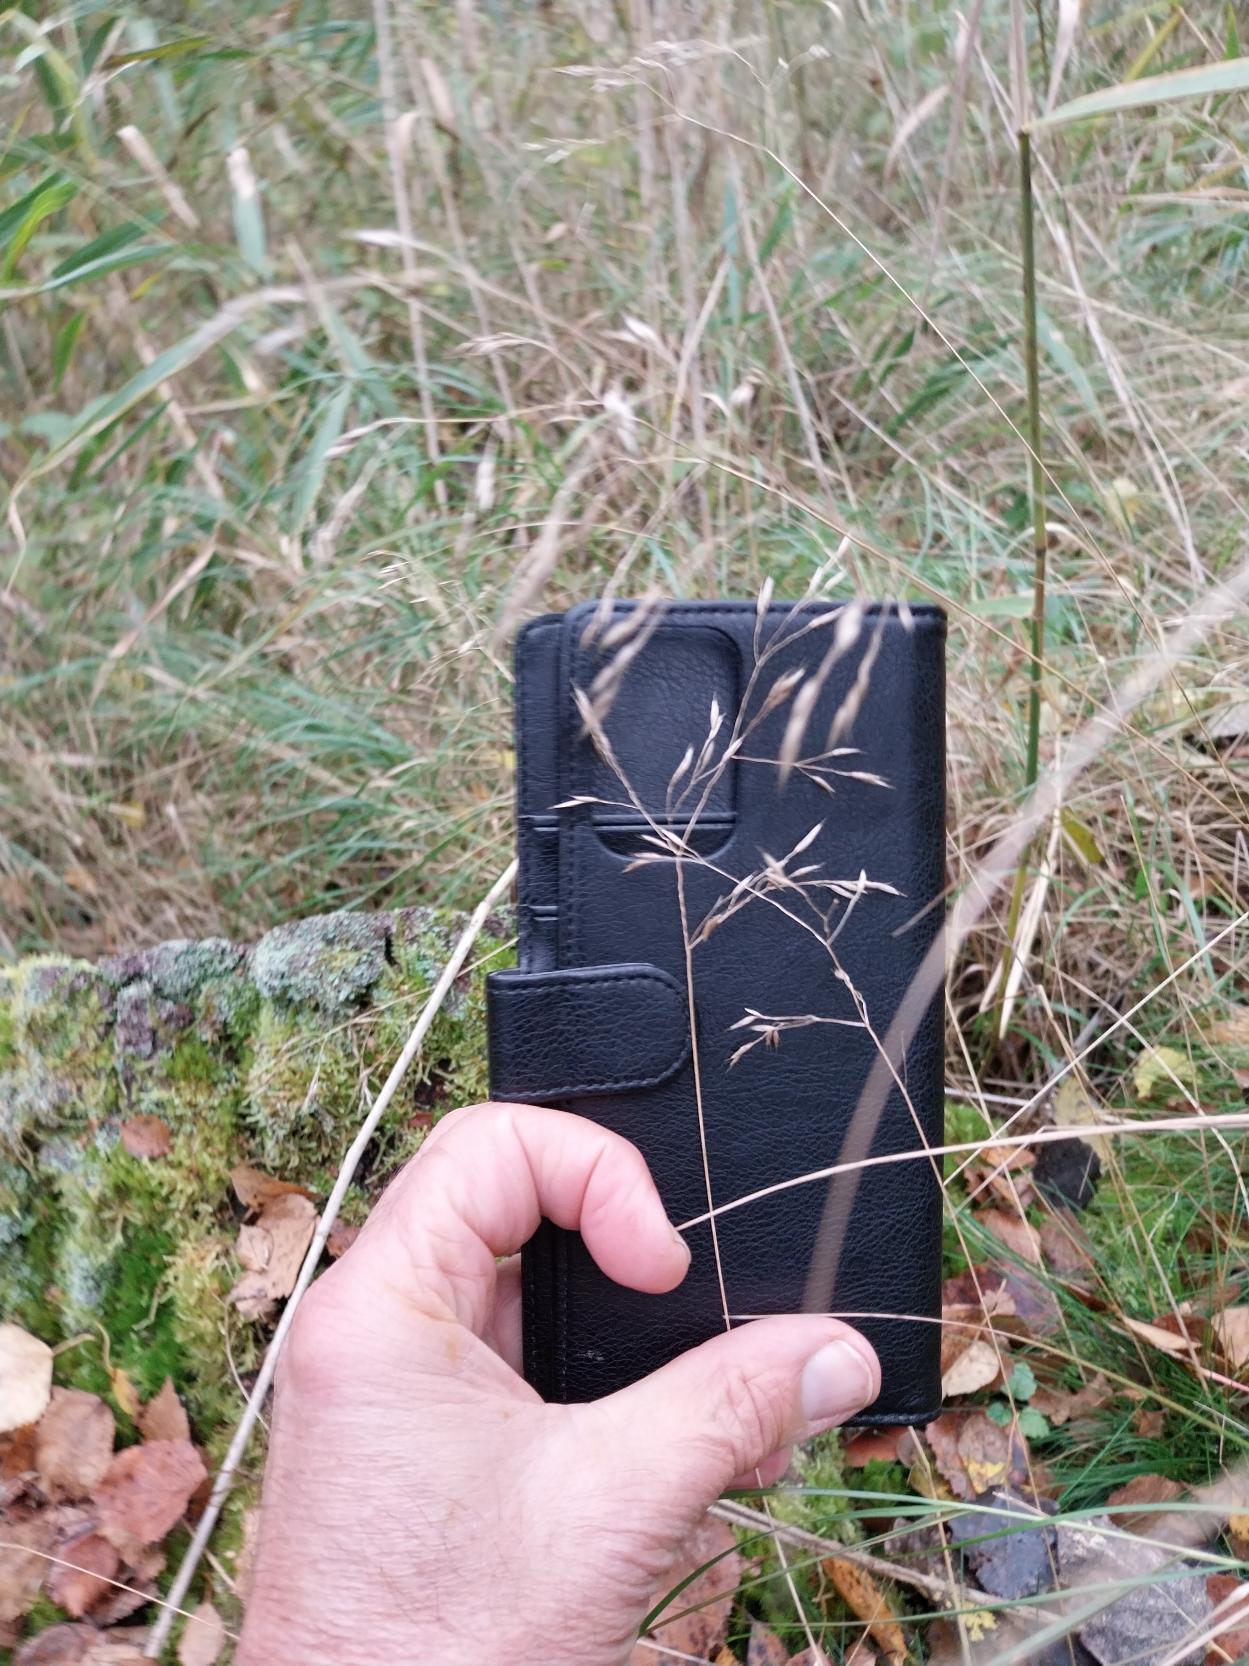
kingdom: Plantae
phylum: Tracheophyta
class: Liliopsida
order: Poales
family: Poaceae
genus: Avenella
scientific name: Avenella flexuosa
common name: Bølget bunke
